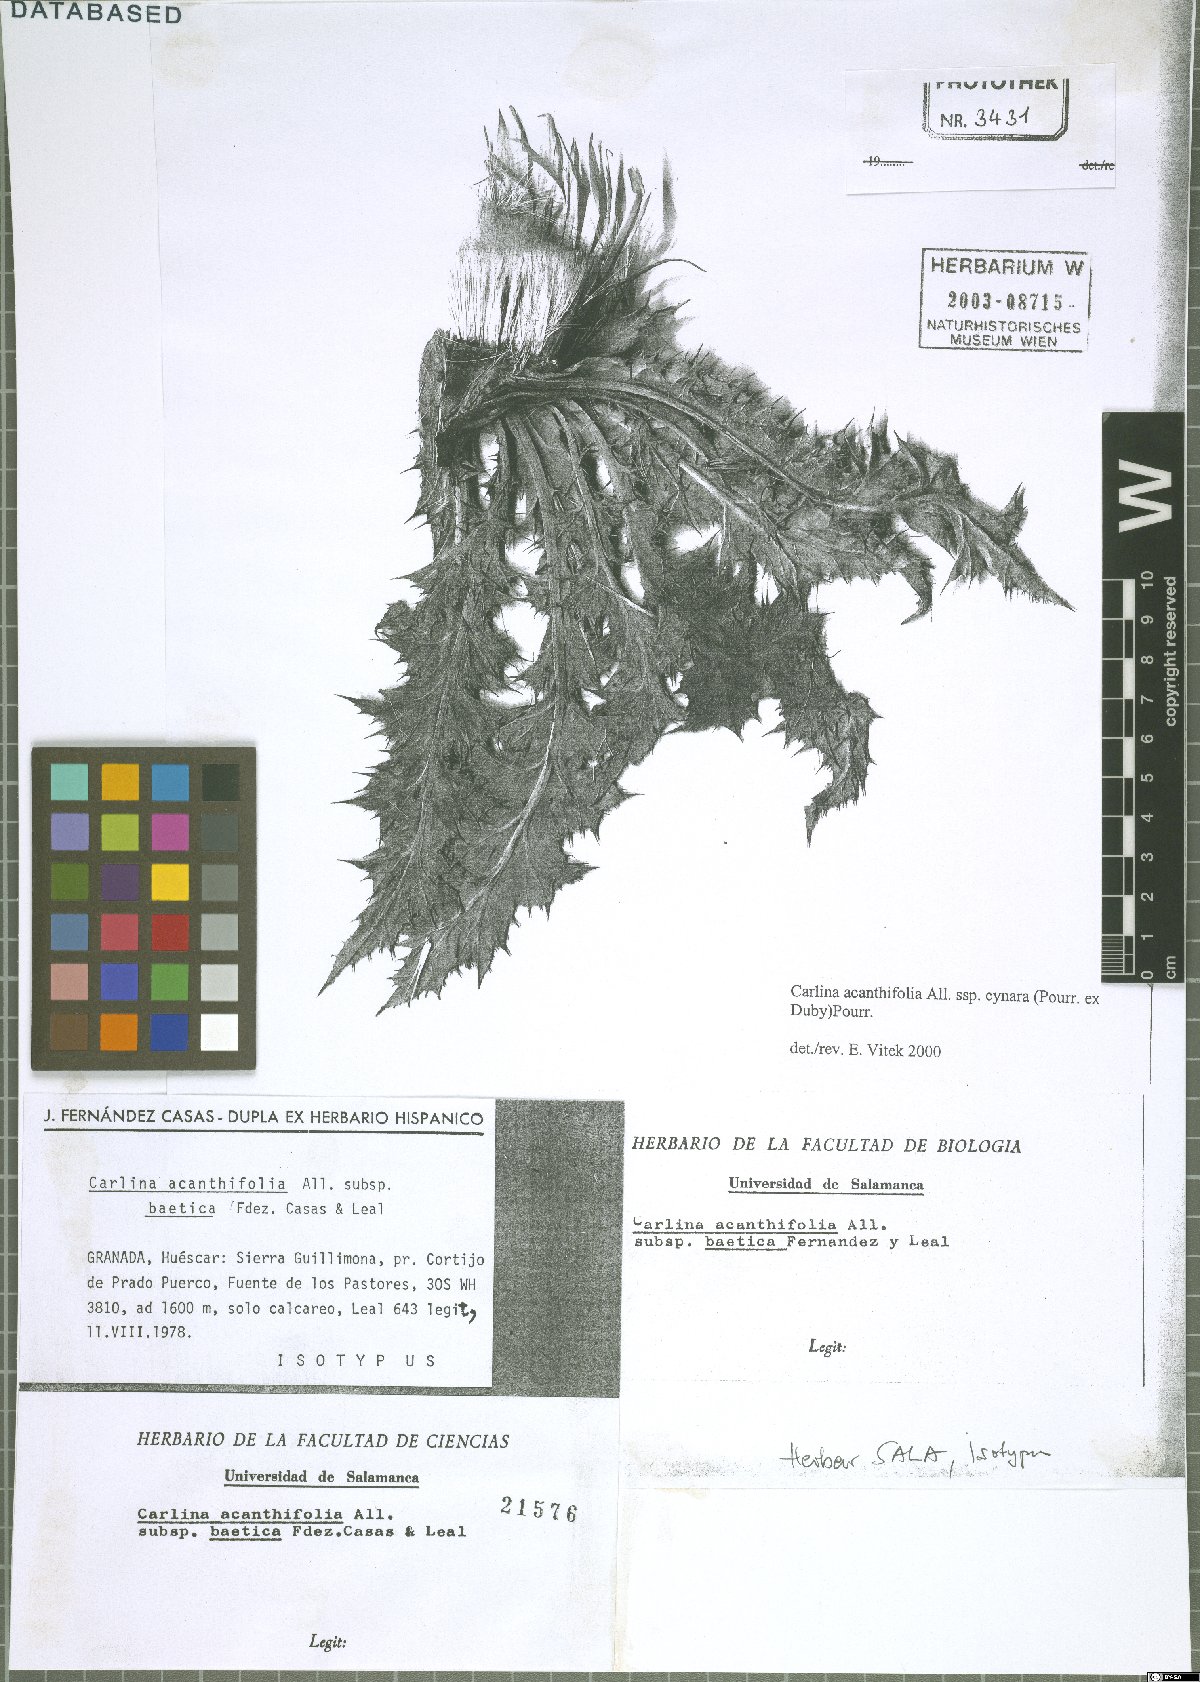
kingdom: Plantae
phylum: Tracheophyta
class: Magnoliopsida
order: Asterales
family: Asteraceae
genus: Carlina
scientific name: Carlina acanthifolia
